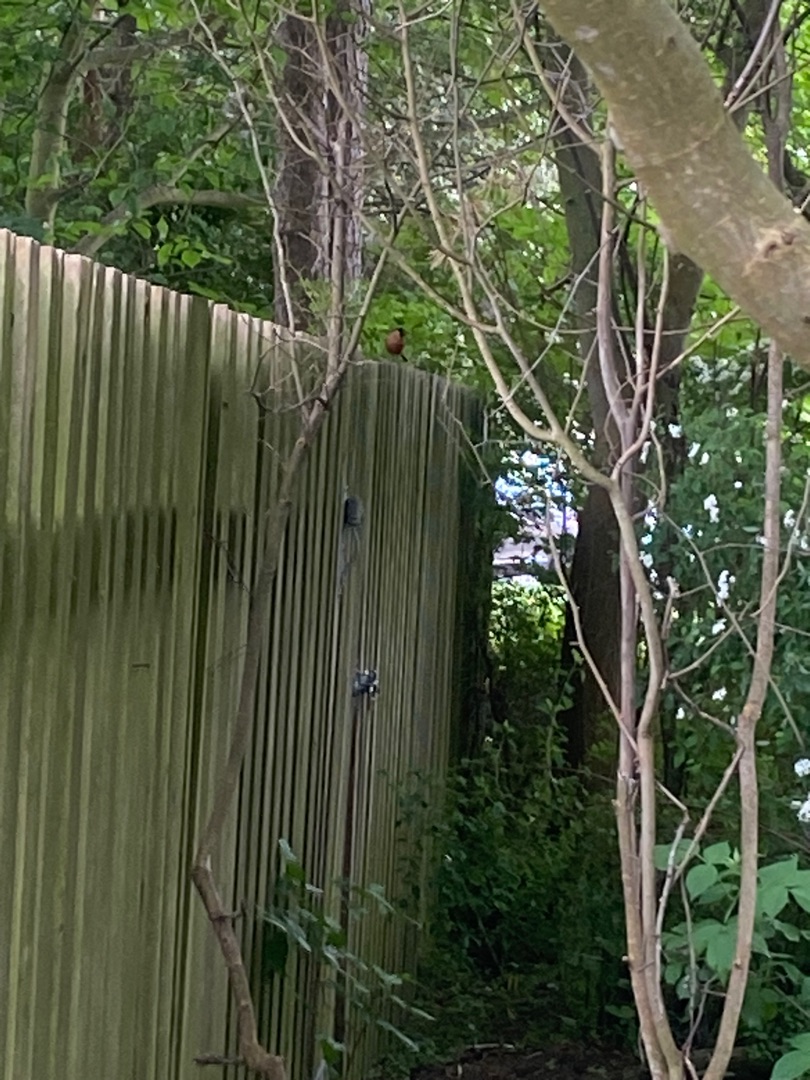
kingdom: Animalia
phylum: Chordata
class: Aves
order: Passeriformes
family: Fringillidae
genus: Pyrrhula
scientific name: Pyrrhula pyrrhula
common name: Dompap
